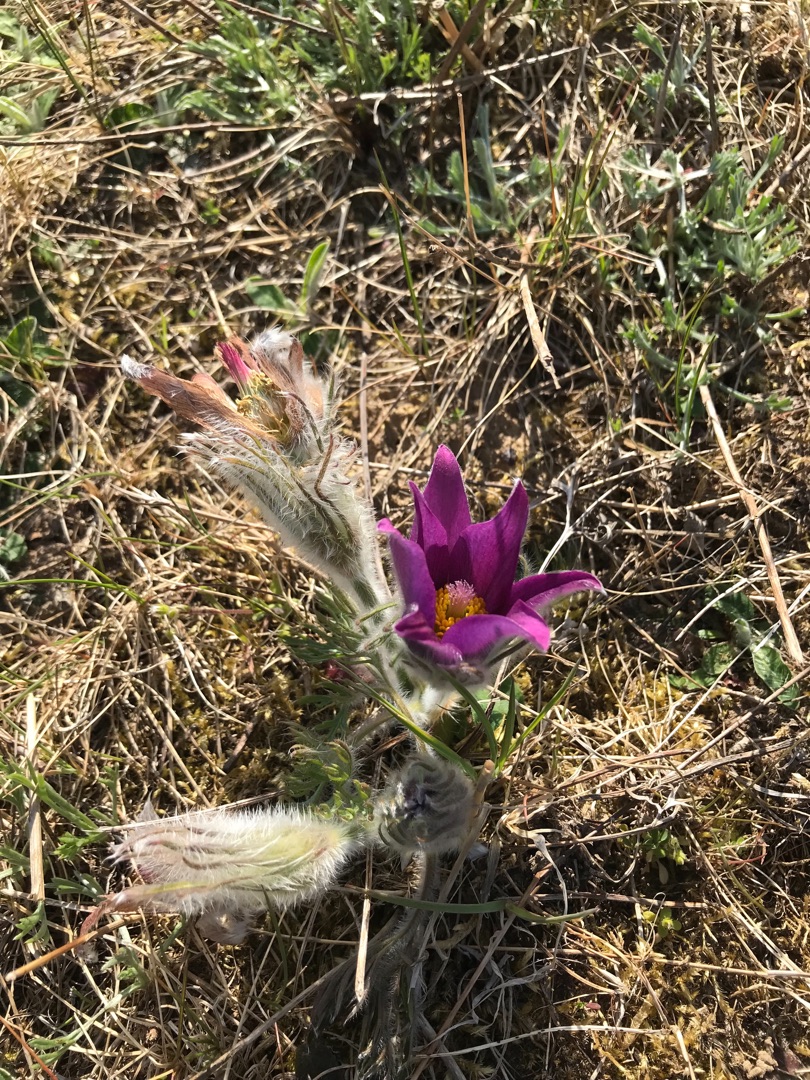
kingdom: Plantae
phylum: Tracheophyta
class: Magnoliopsida
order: Ranunculales
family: Ranunculaceae
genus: Pulsatilla
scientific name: Pulsatilla vulgaris
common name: Opret kobjælde
